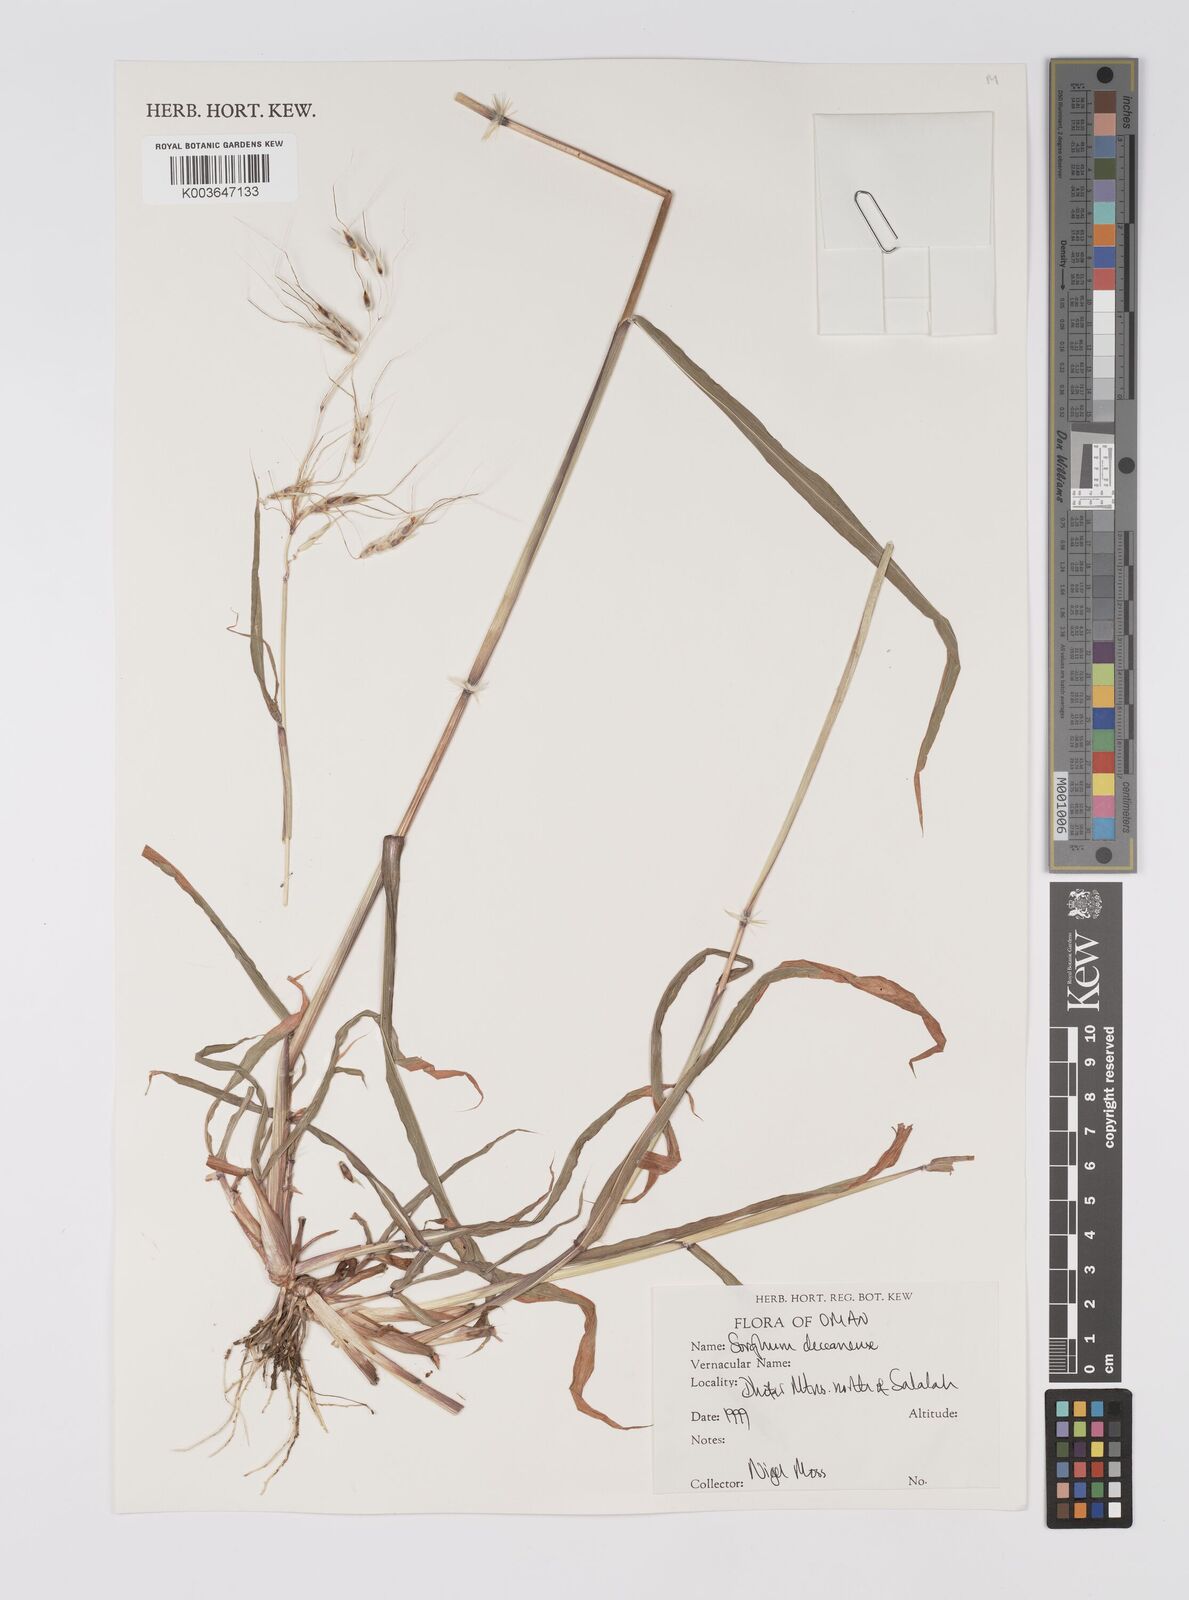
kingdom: Plantae
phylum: Tracheophyta
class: Liliopsida
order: Poales
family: Poaceae
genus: Sarga
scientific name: Sarga purpureosericea
